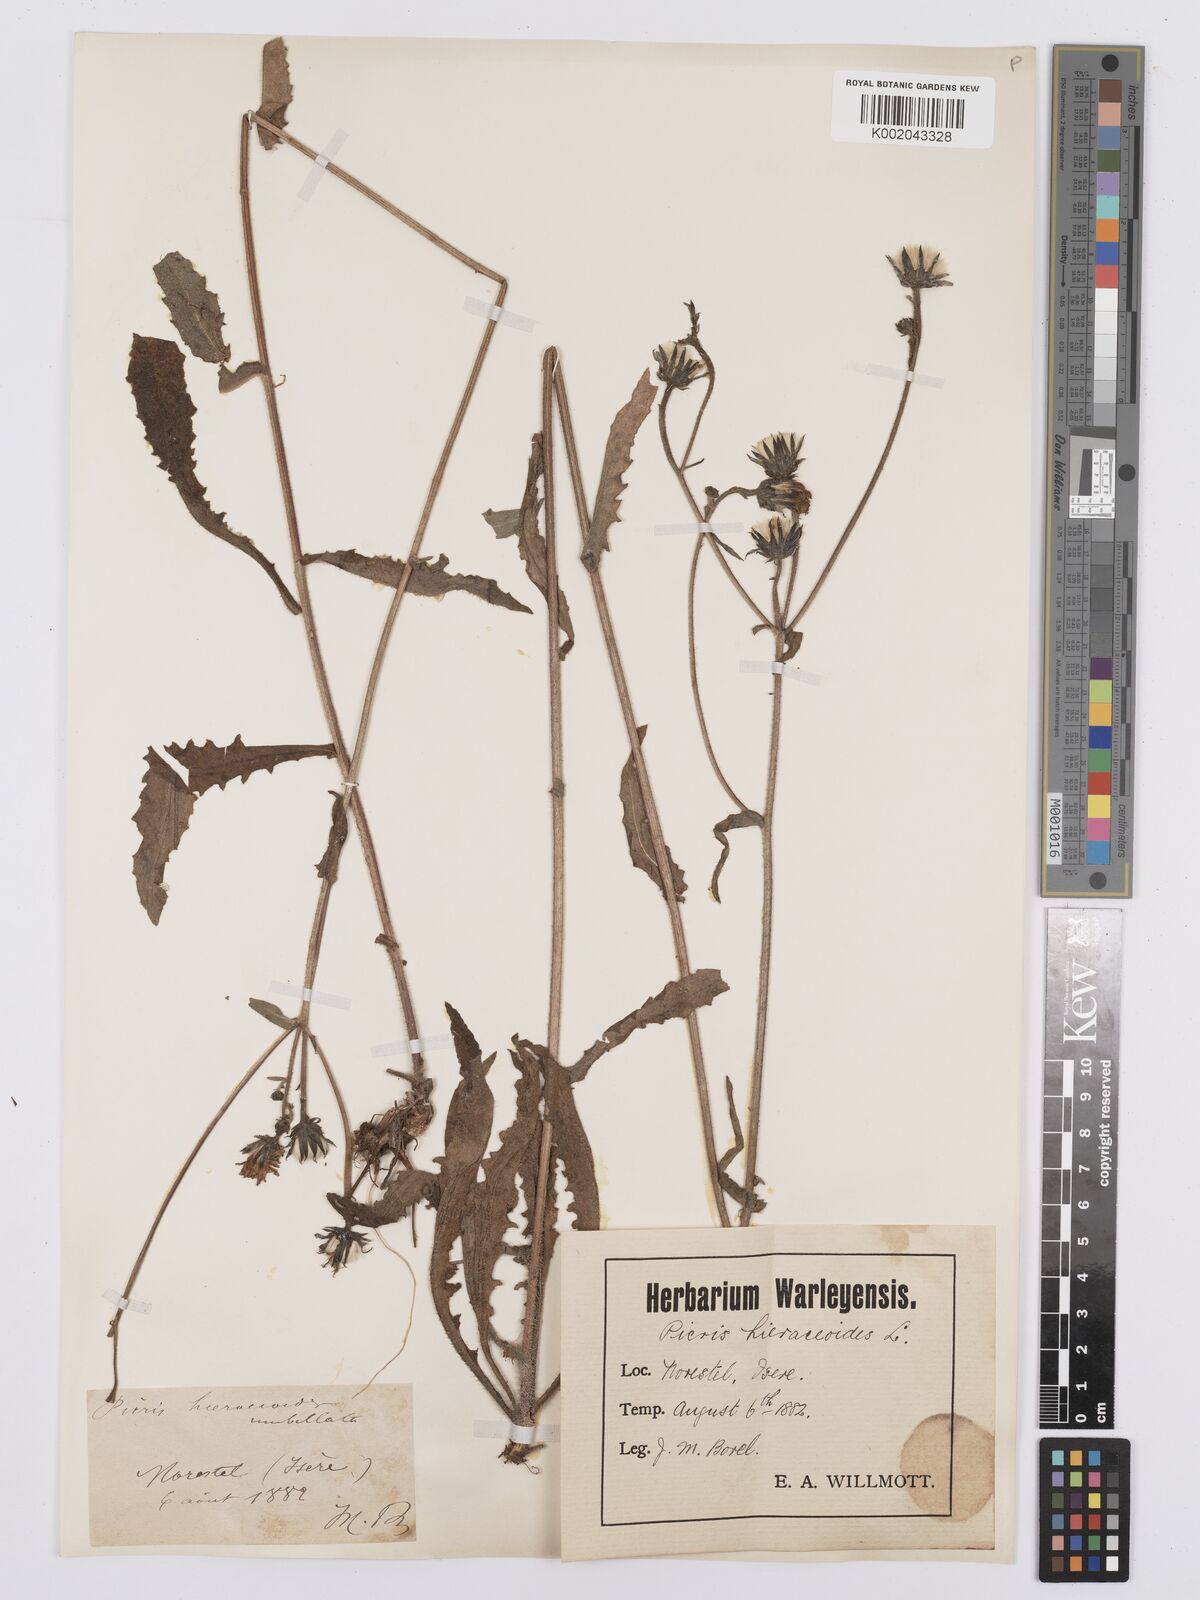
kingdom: Plantae
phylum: Tracheophyta
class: Magnoliopsida
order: Asterales
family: Asteraceae
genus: Picris
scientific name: Picris hieracioides
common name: Hawkweed oxtongue
